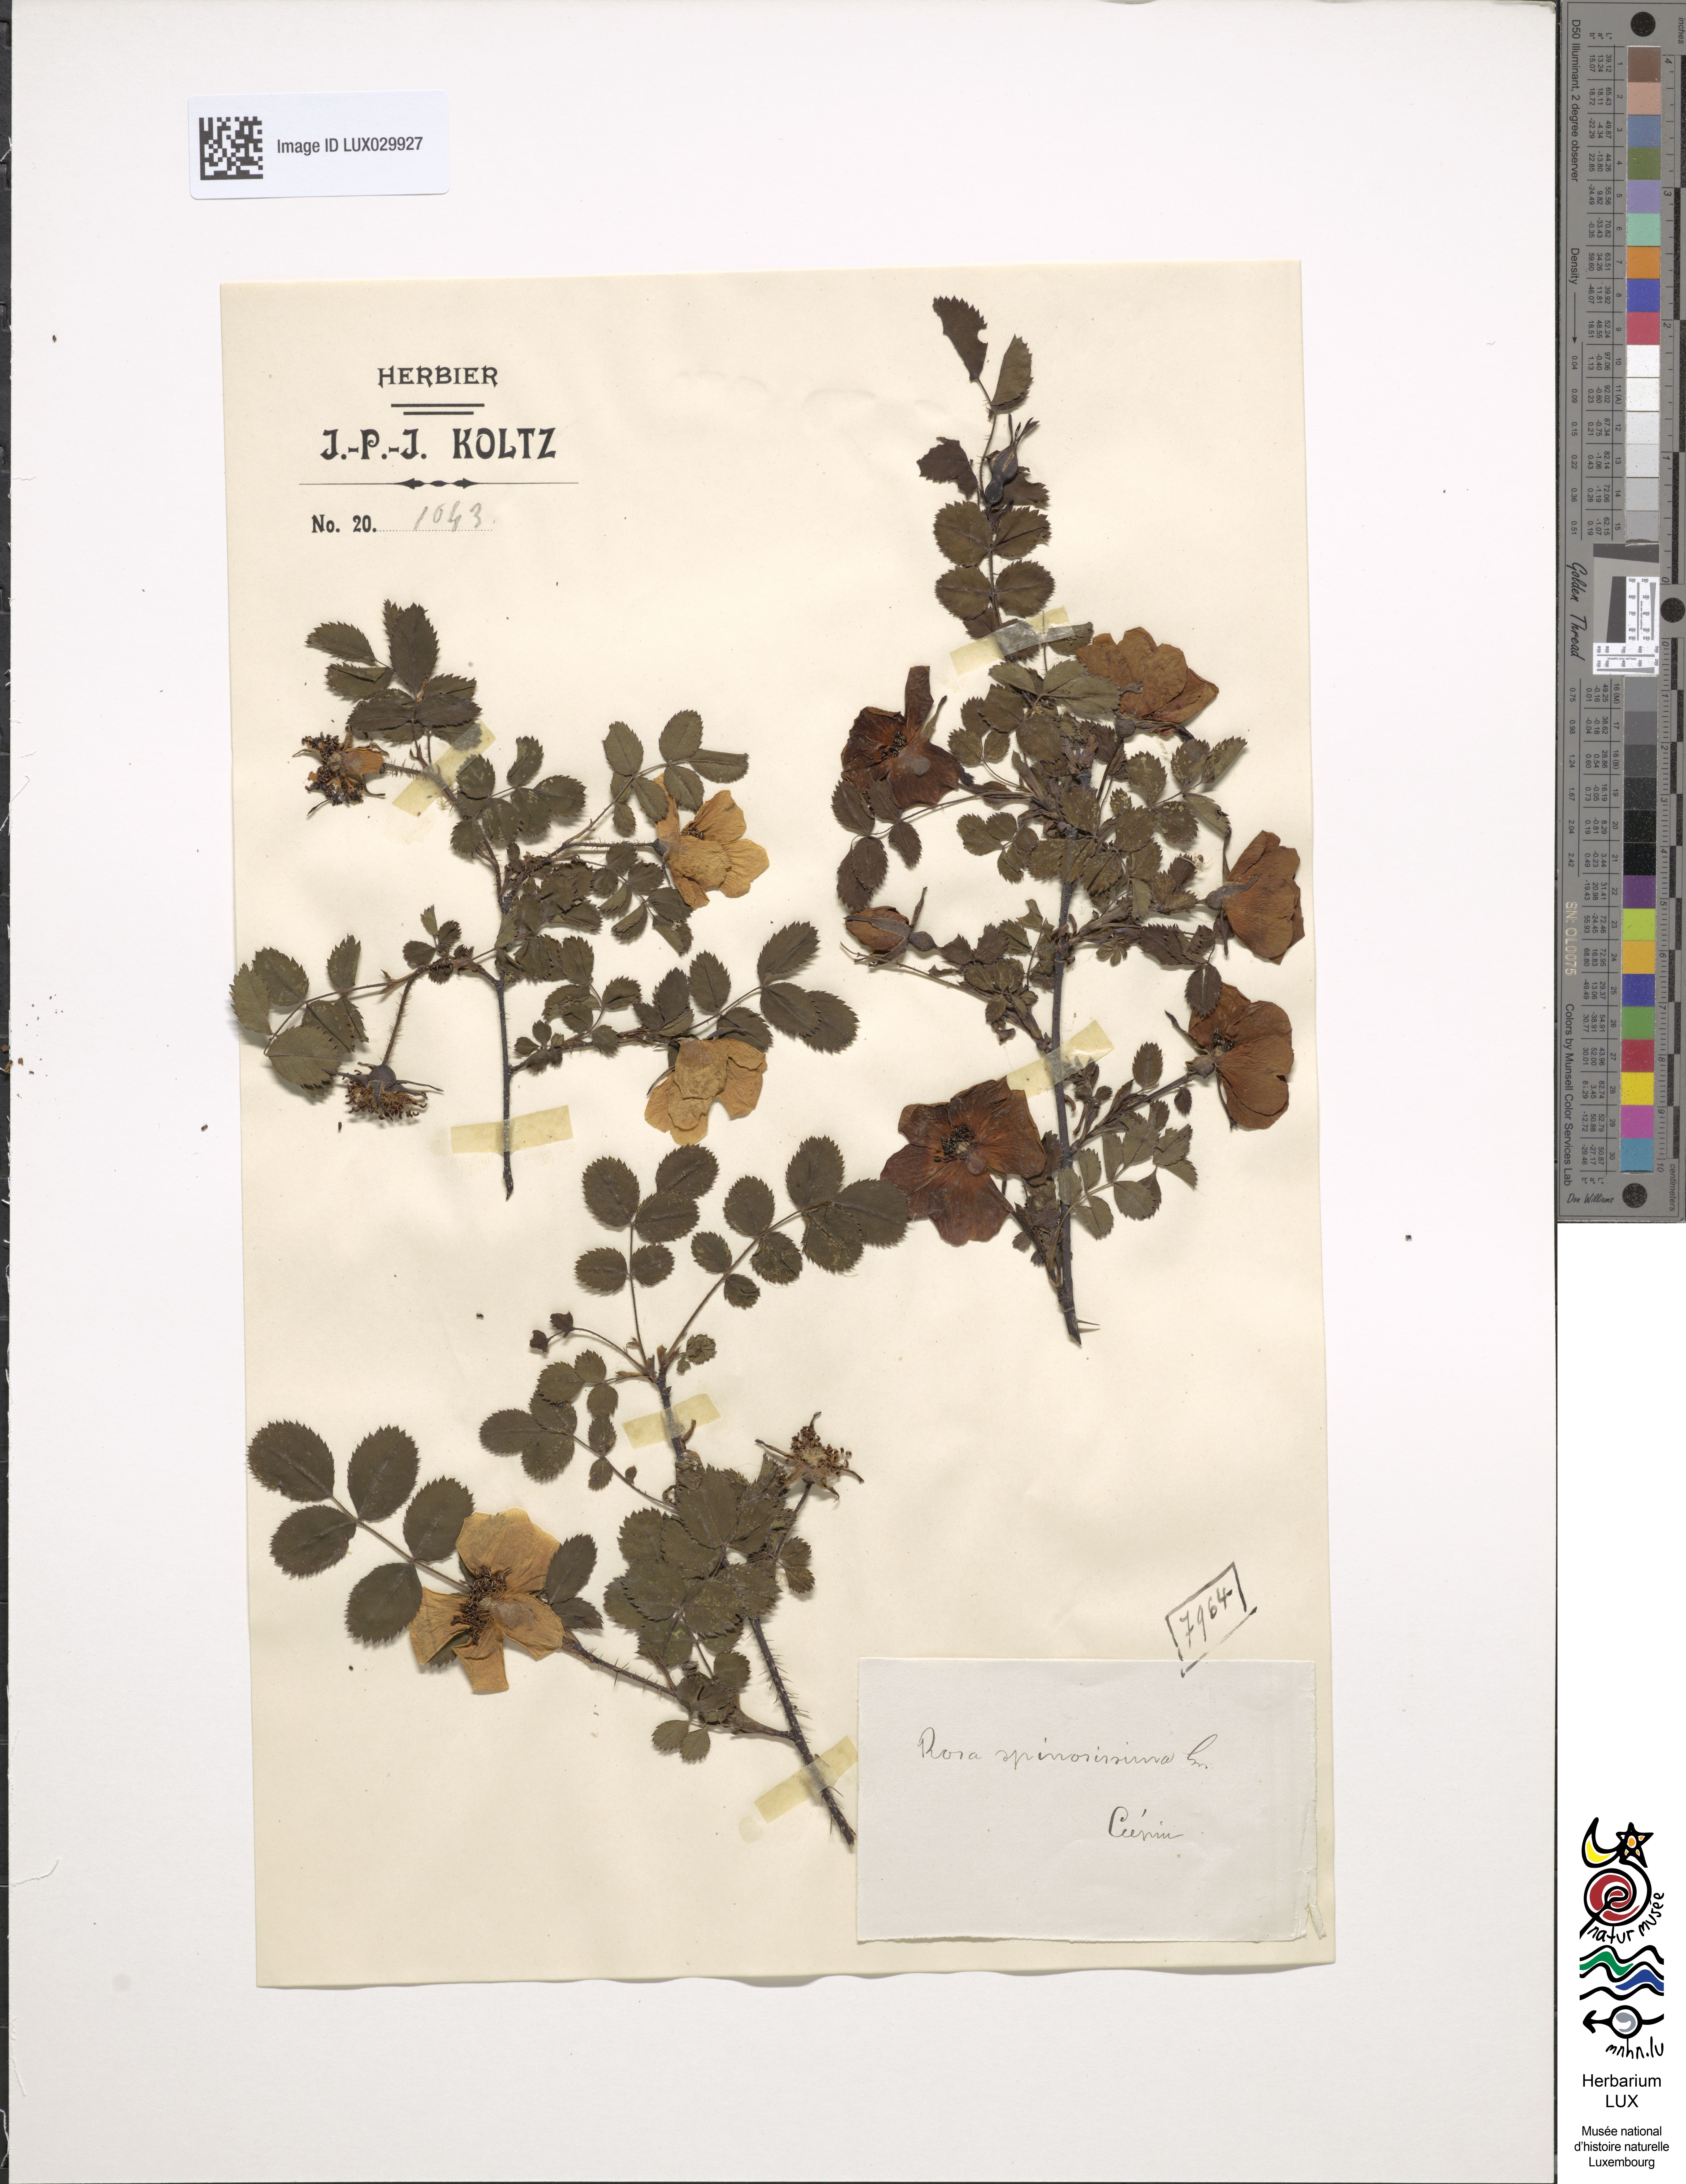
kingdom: Plantae
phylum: Tracheophyta
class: Magnoliopsida
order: Rosales
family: Rosaceae
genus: Rosa
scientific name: Rosa
